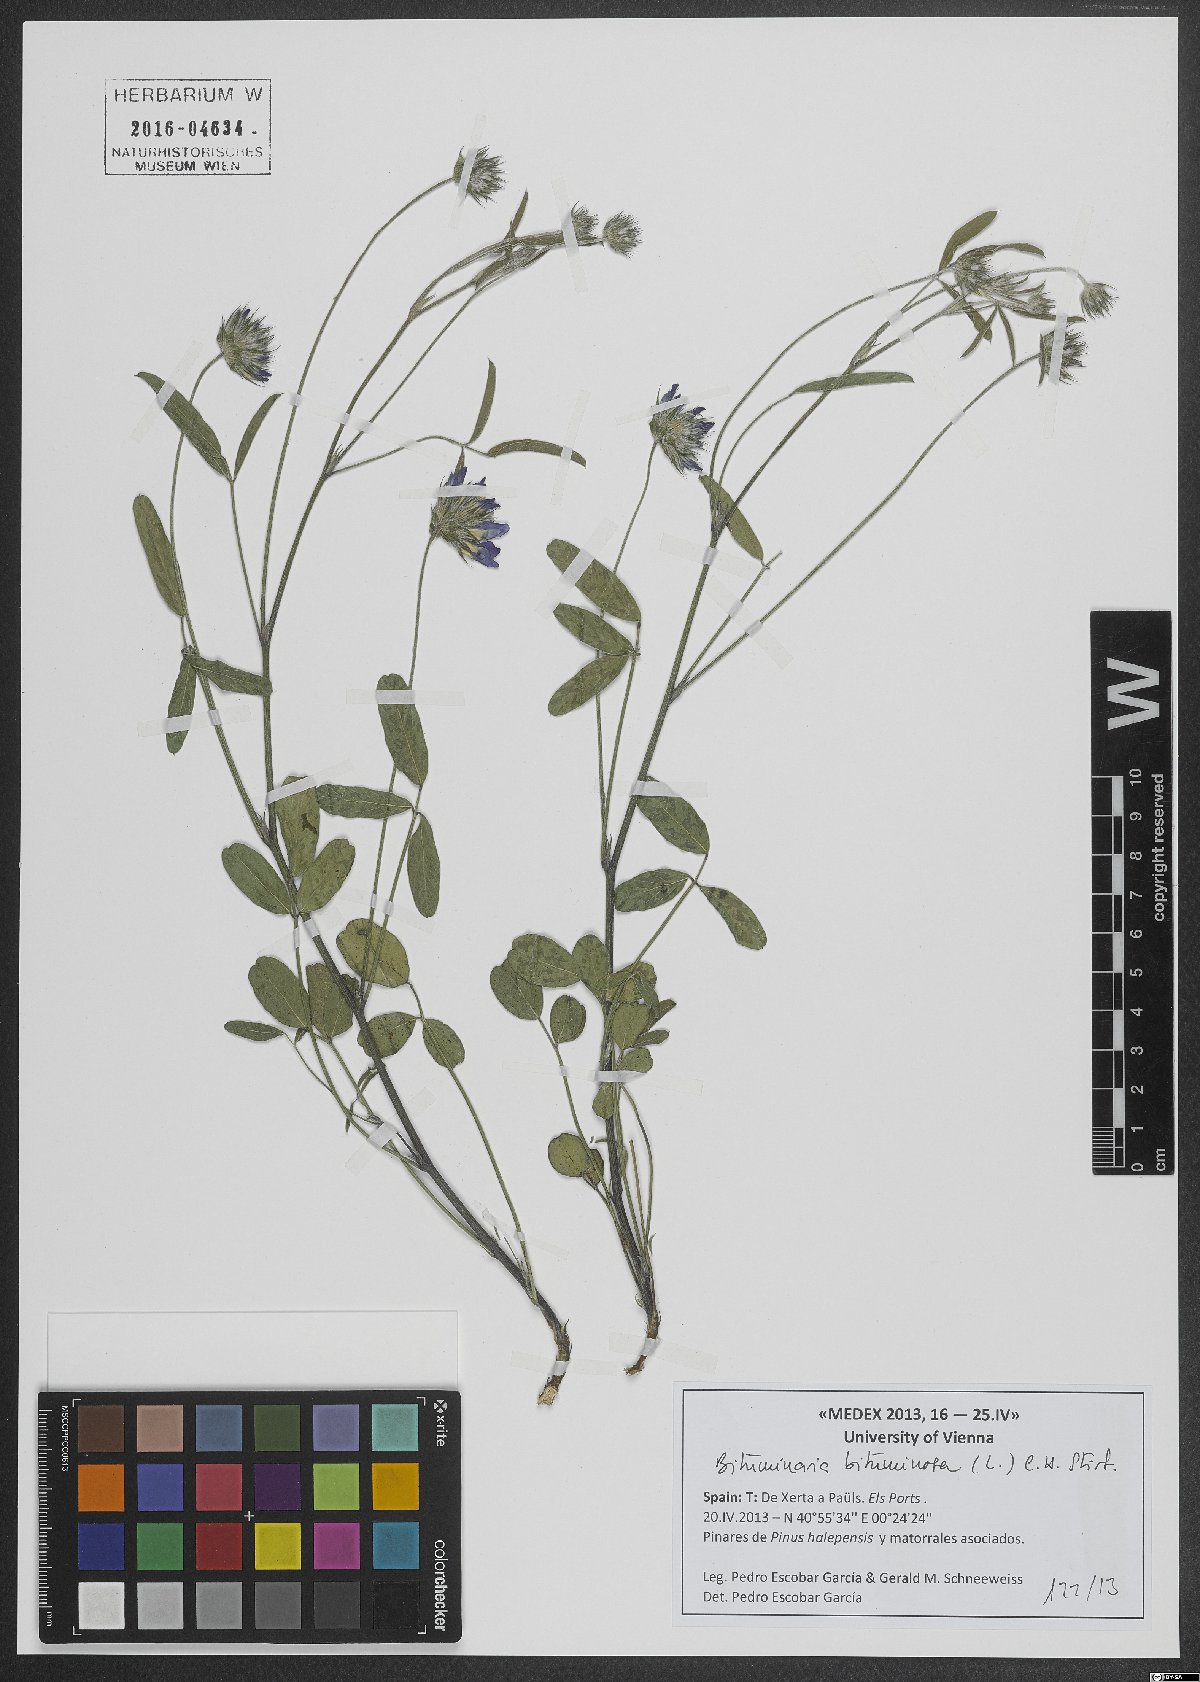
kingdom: Plantae
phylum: Tracheophyta
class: Magnoliopsida
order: Fabales
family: Fabaceae
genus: Bituminaria
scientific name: Bituminaria bituminosa
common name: Arabian pea
